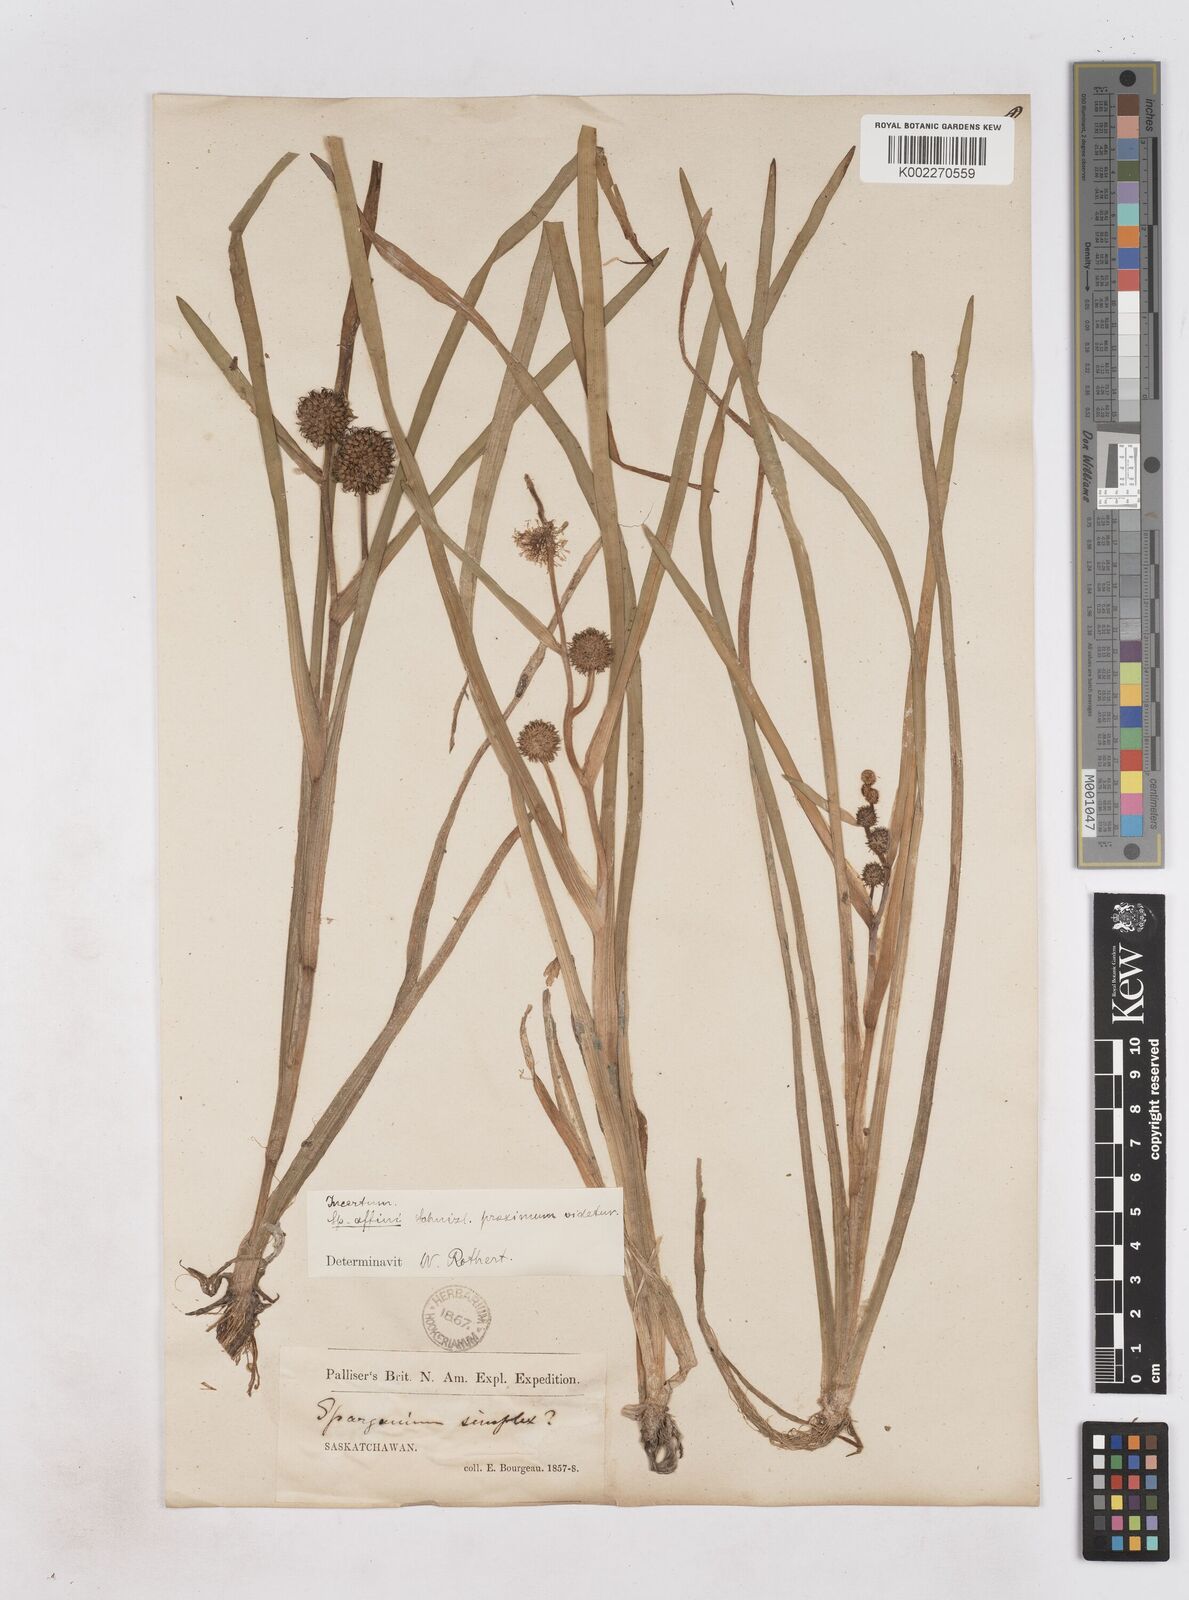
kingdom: Plantae
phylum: Tracheophyta
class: Liliopsida
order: Poales
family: Typhaceae
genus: Sparganium
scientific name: Sparganium angustifolium
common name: Floating bur-reed
